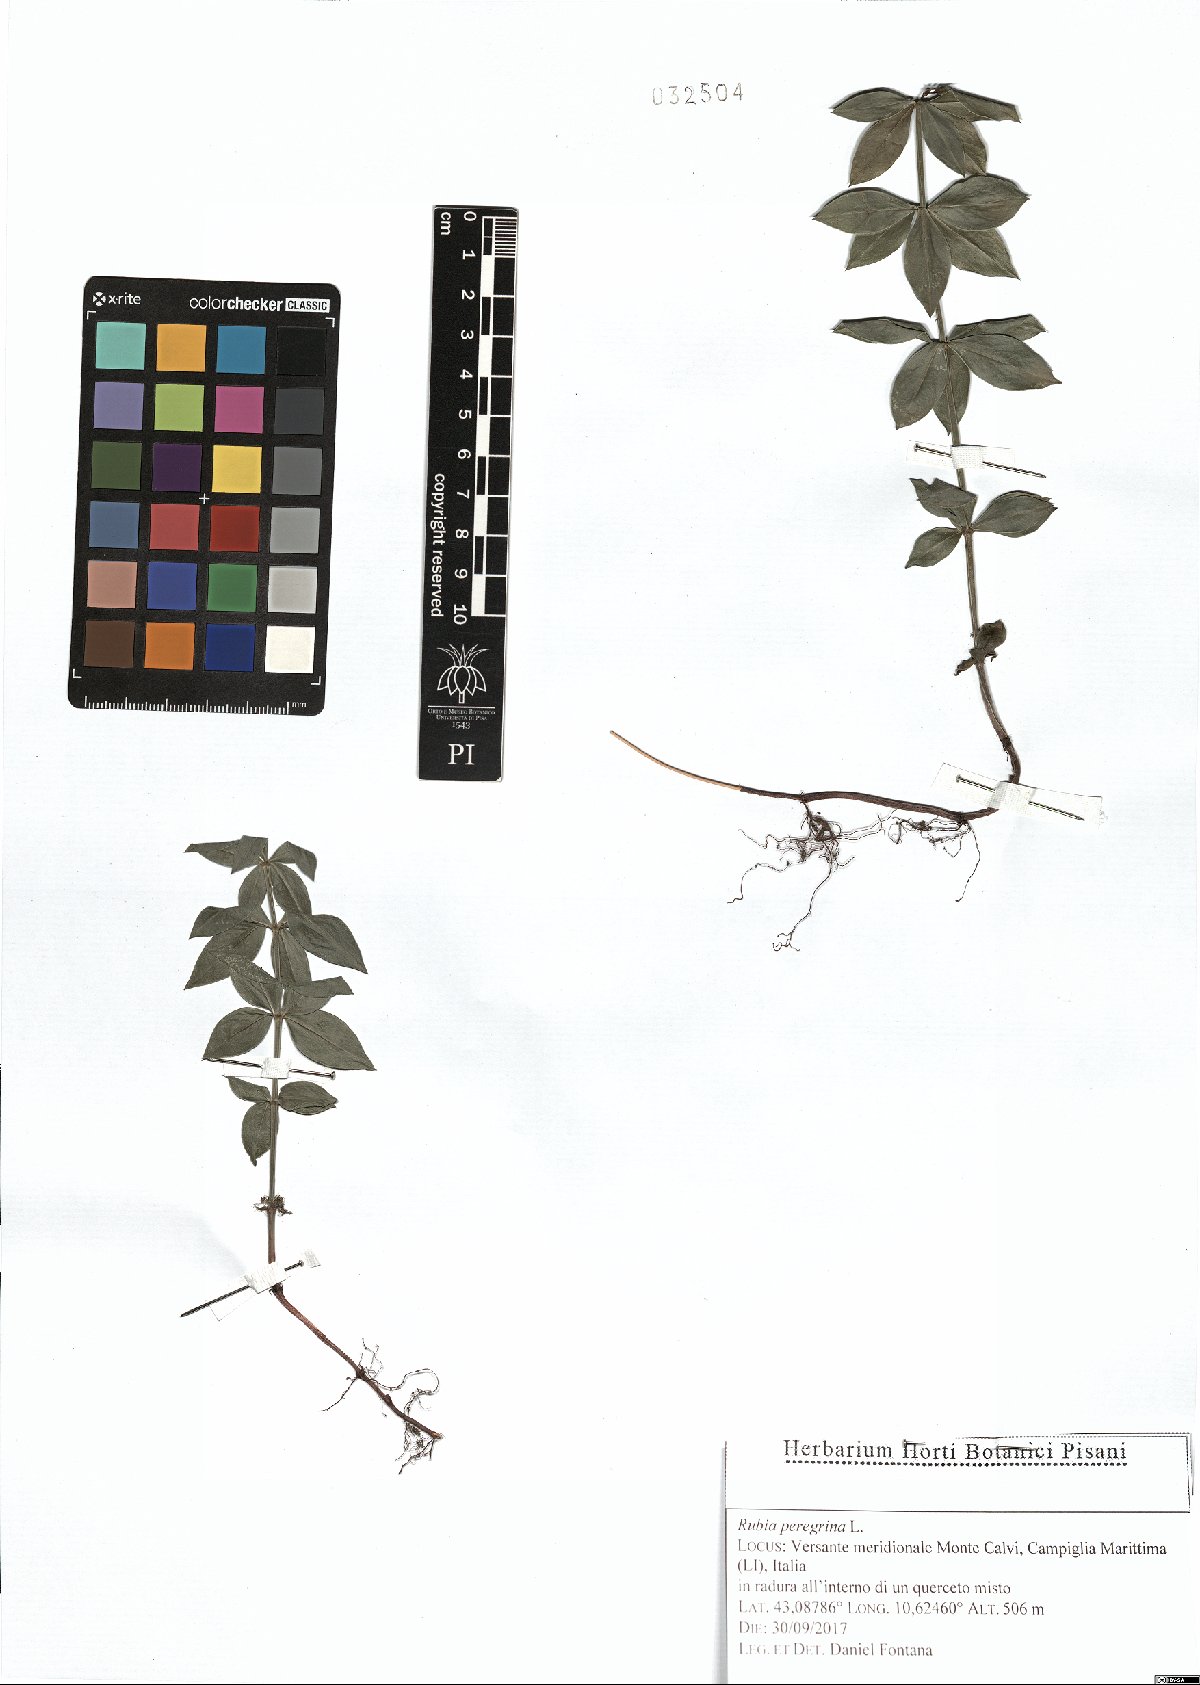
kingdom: Plantae
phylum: Tracheophyta
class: Magnoliopsida
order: Gentianales
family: Rubiaceae
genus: Rubia
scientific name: Rubia peregrina
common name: Wild madder
